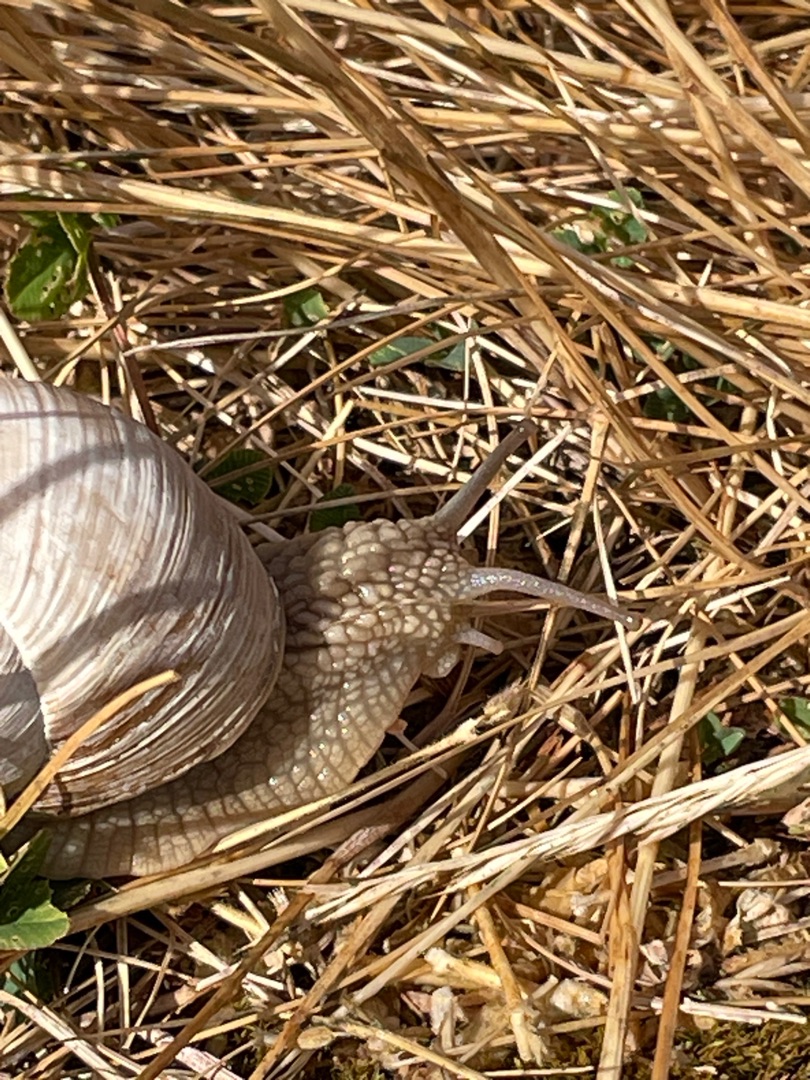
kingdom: Animalia
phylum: Mollusca
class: Gastropoda
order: Stylommatophora
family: Helicidae
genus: Helix
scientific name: Helix pomatia
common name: Vinbjergsnegl
